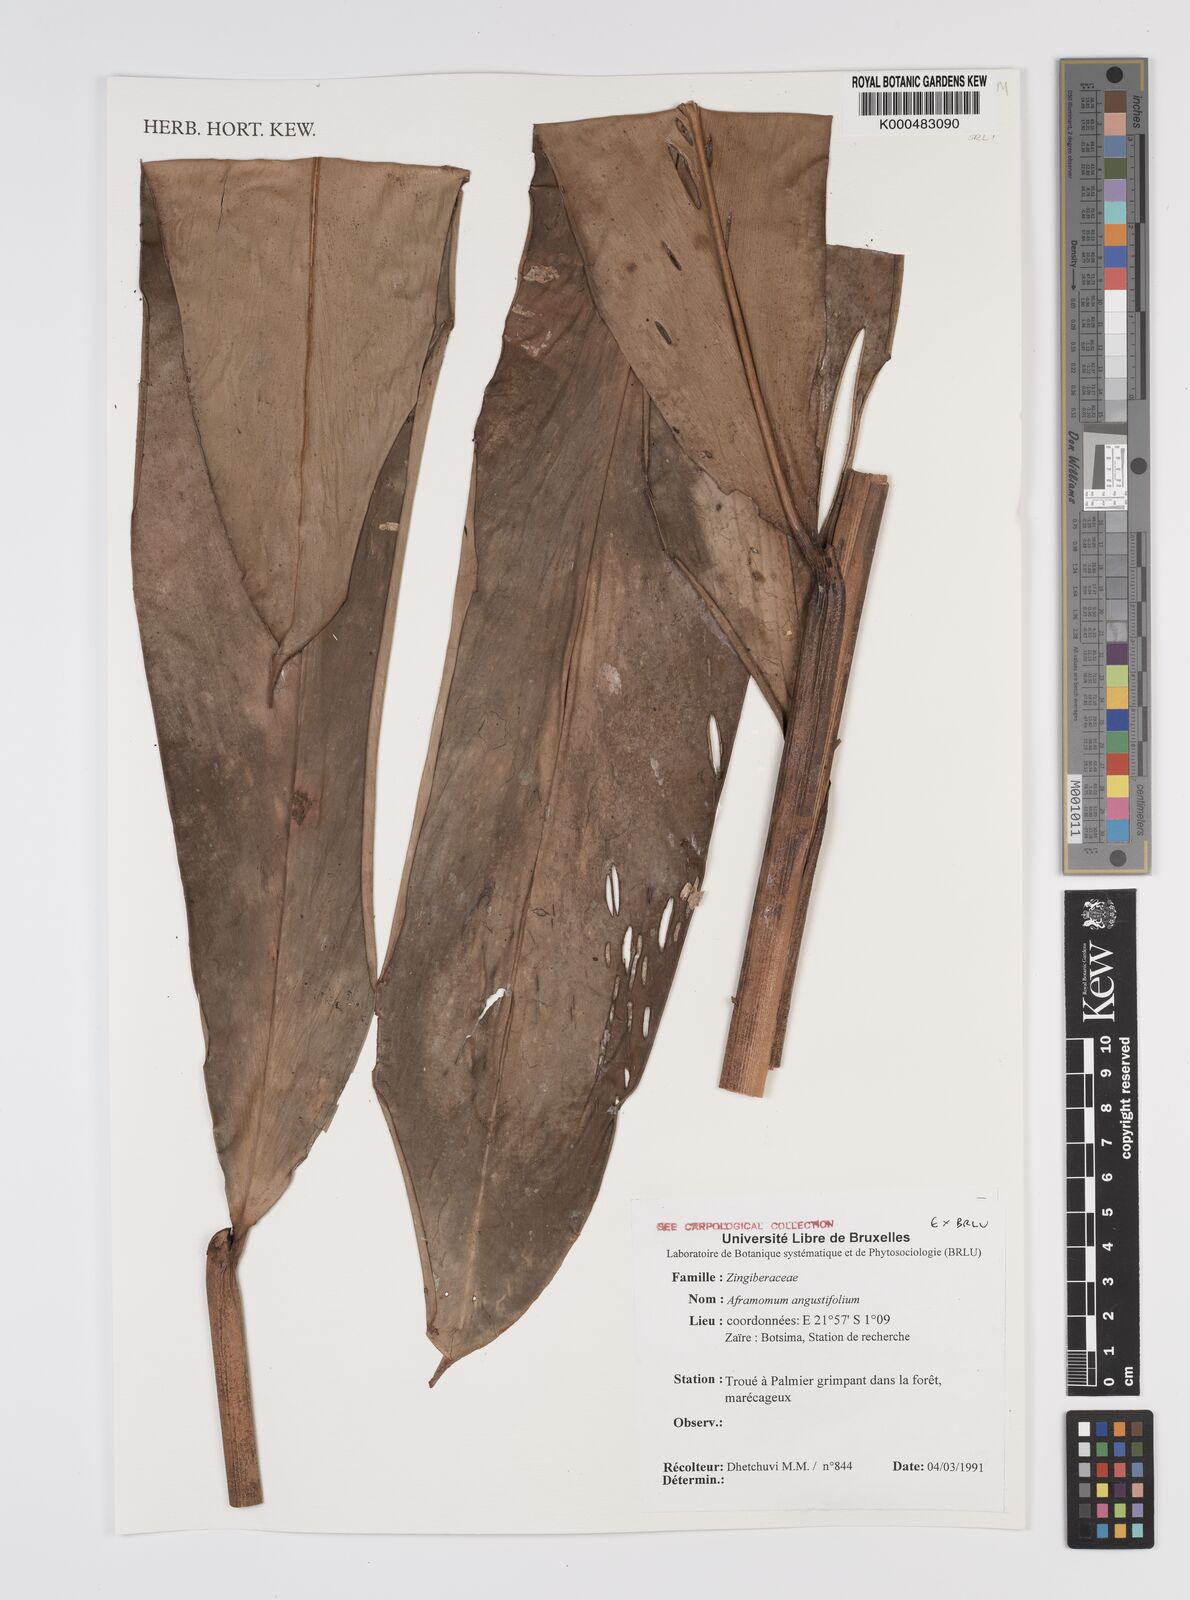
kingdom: Plantae
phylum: Tracheophyta
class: Liliopsida
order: Zingiberales
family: Zingiberaceae
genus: Aframomum
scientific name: Aframomum angustifolium
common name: Guinea grains
